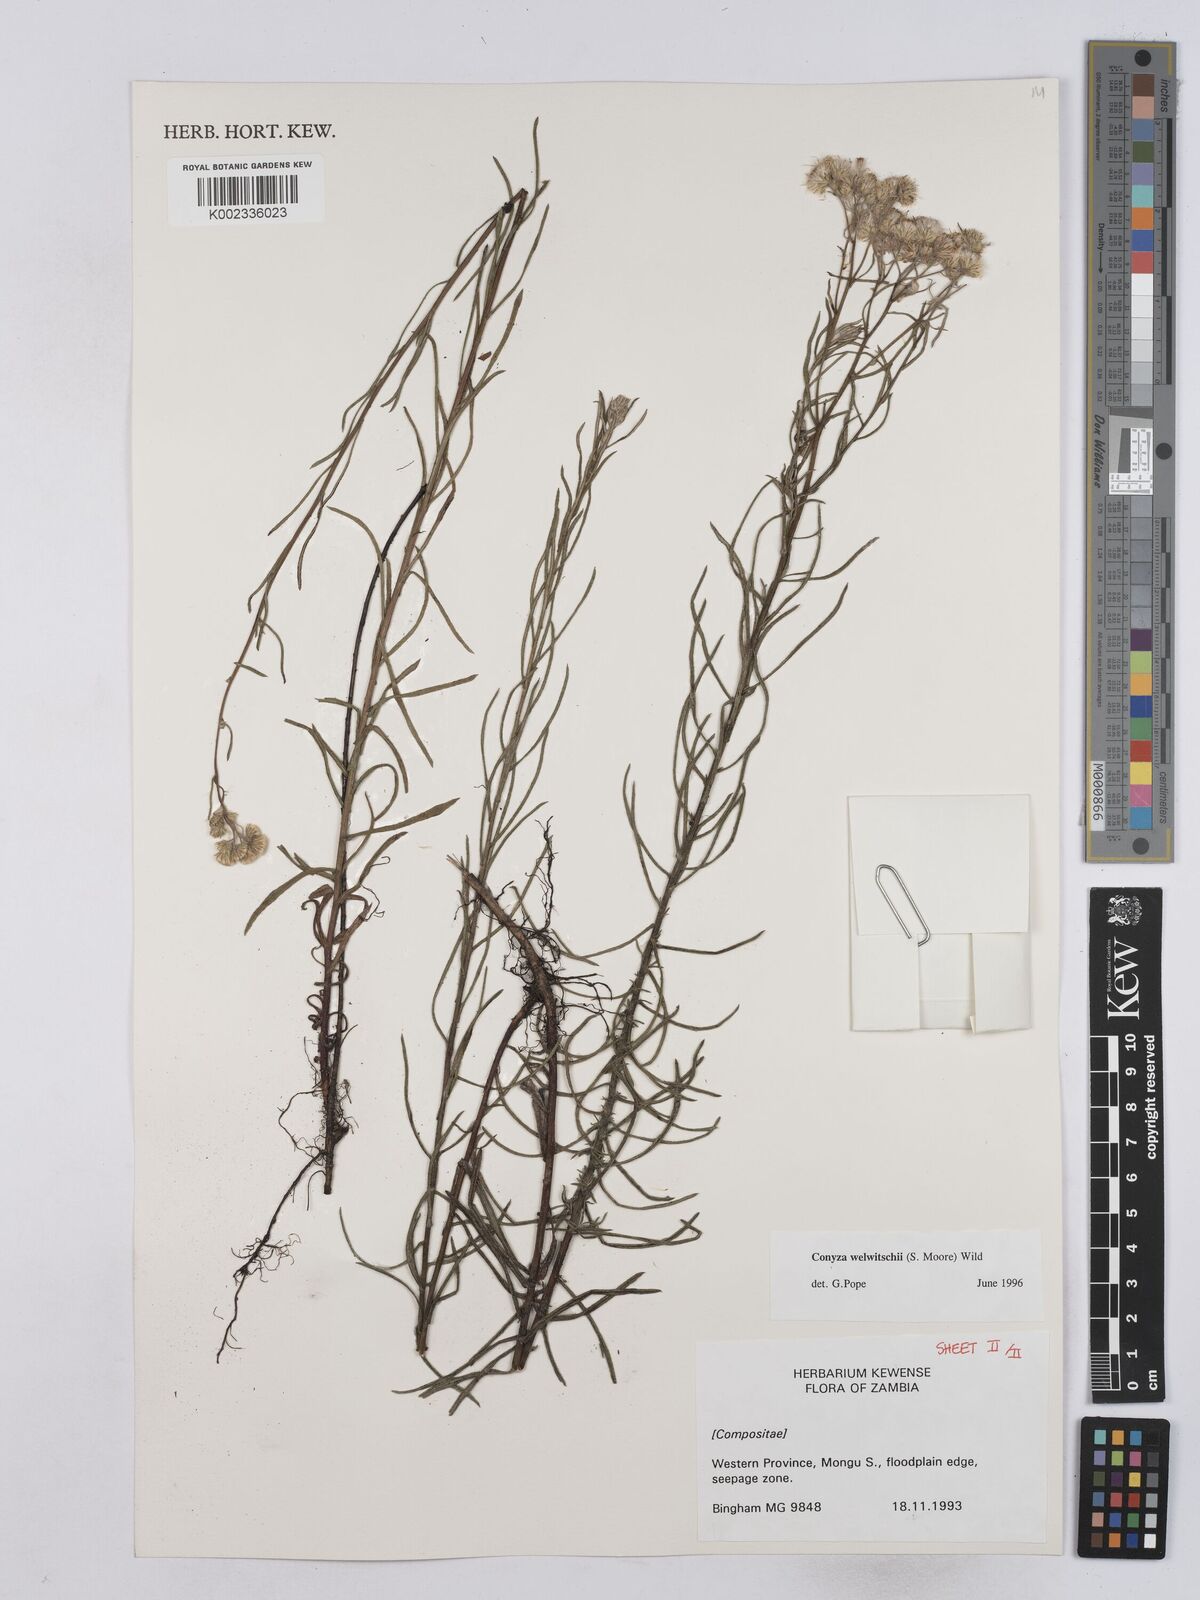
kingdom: Plantae
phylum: Tracheophyta
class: Magnoliopsida
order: Asterales
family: Asteraceae
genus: Nidorella
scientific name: Nidorella welwitschii
